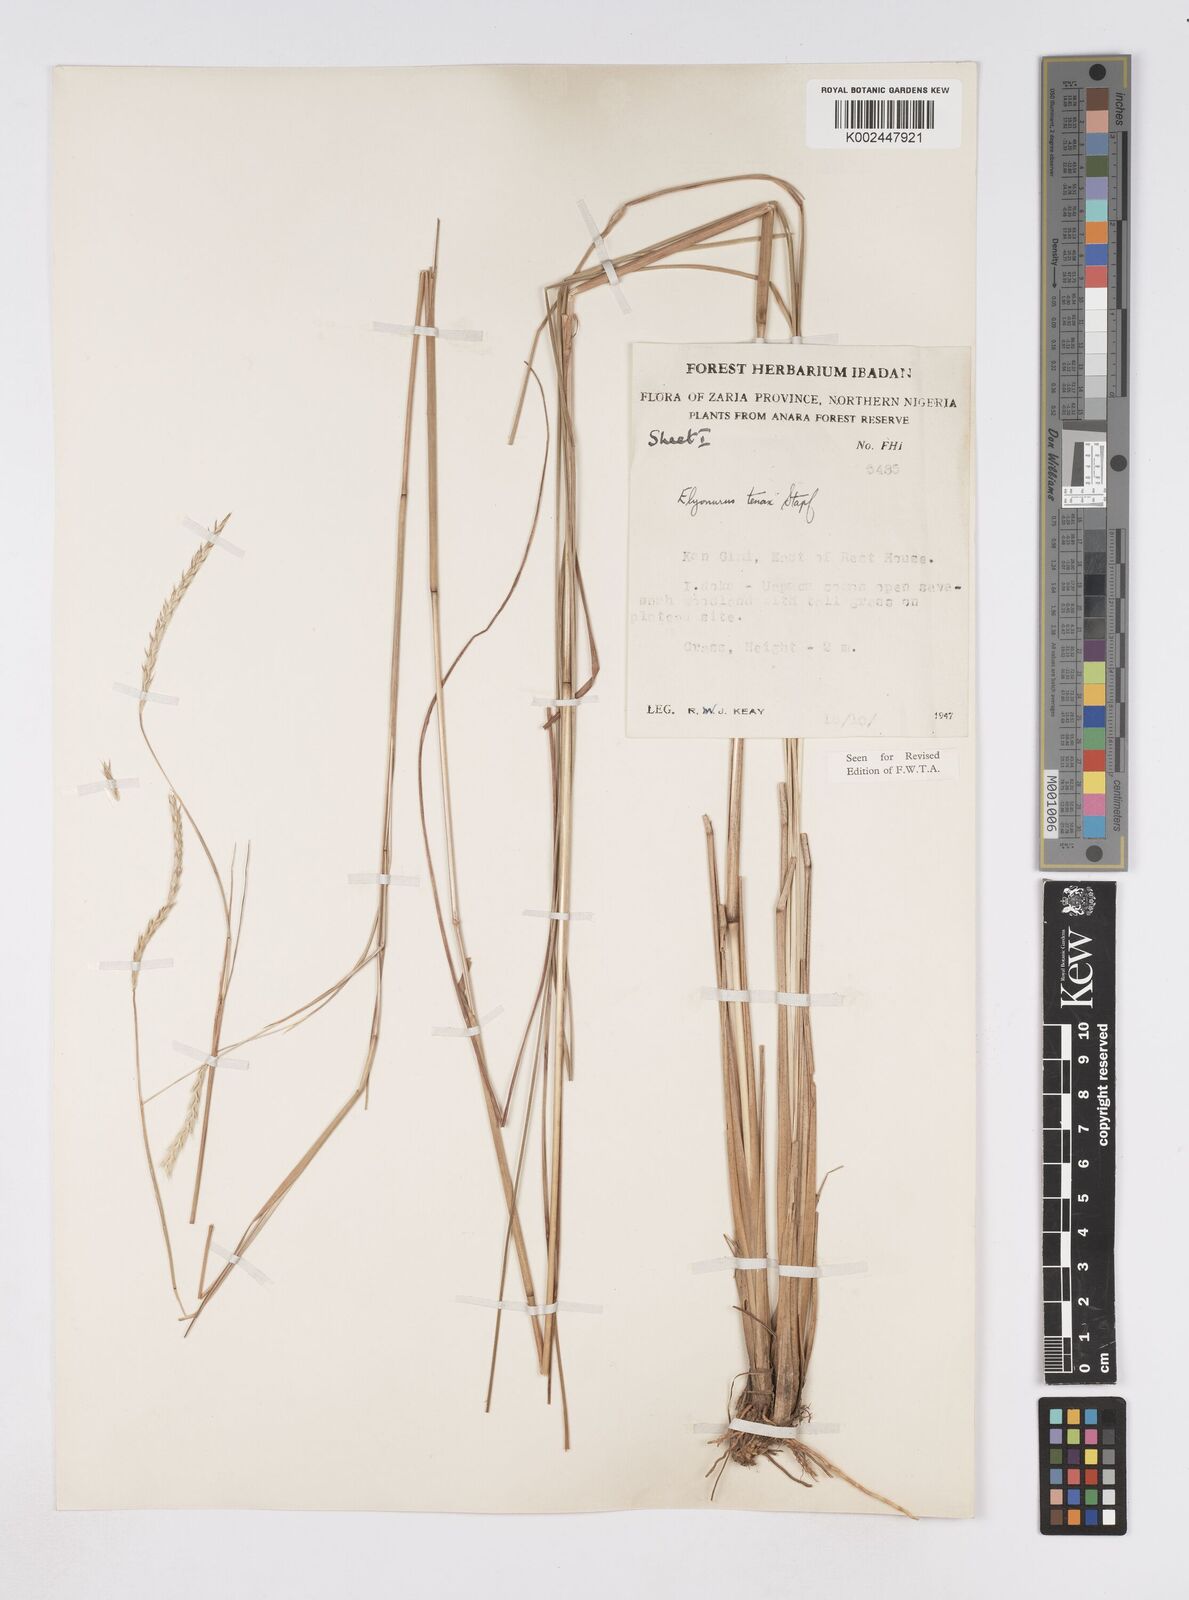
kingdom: Plantae
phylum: Tracheophyta
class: Liliopsida
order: Poales
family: Poaceae
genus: Elionurus
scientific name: Elionurus
